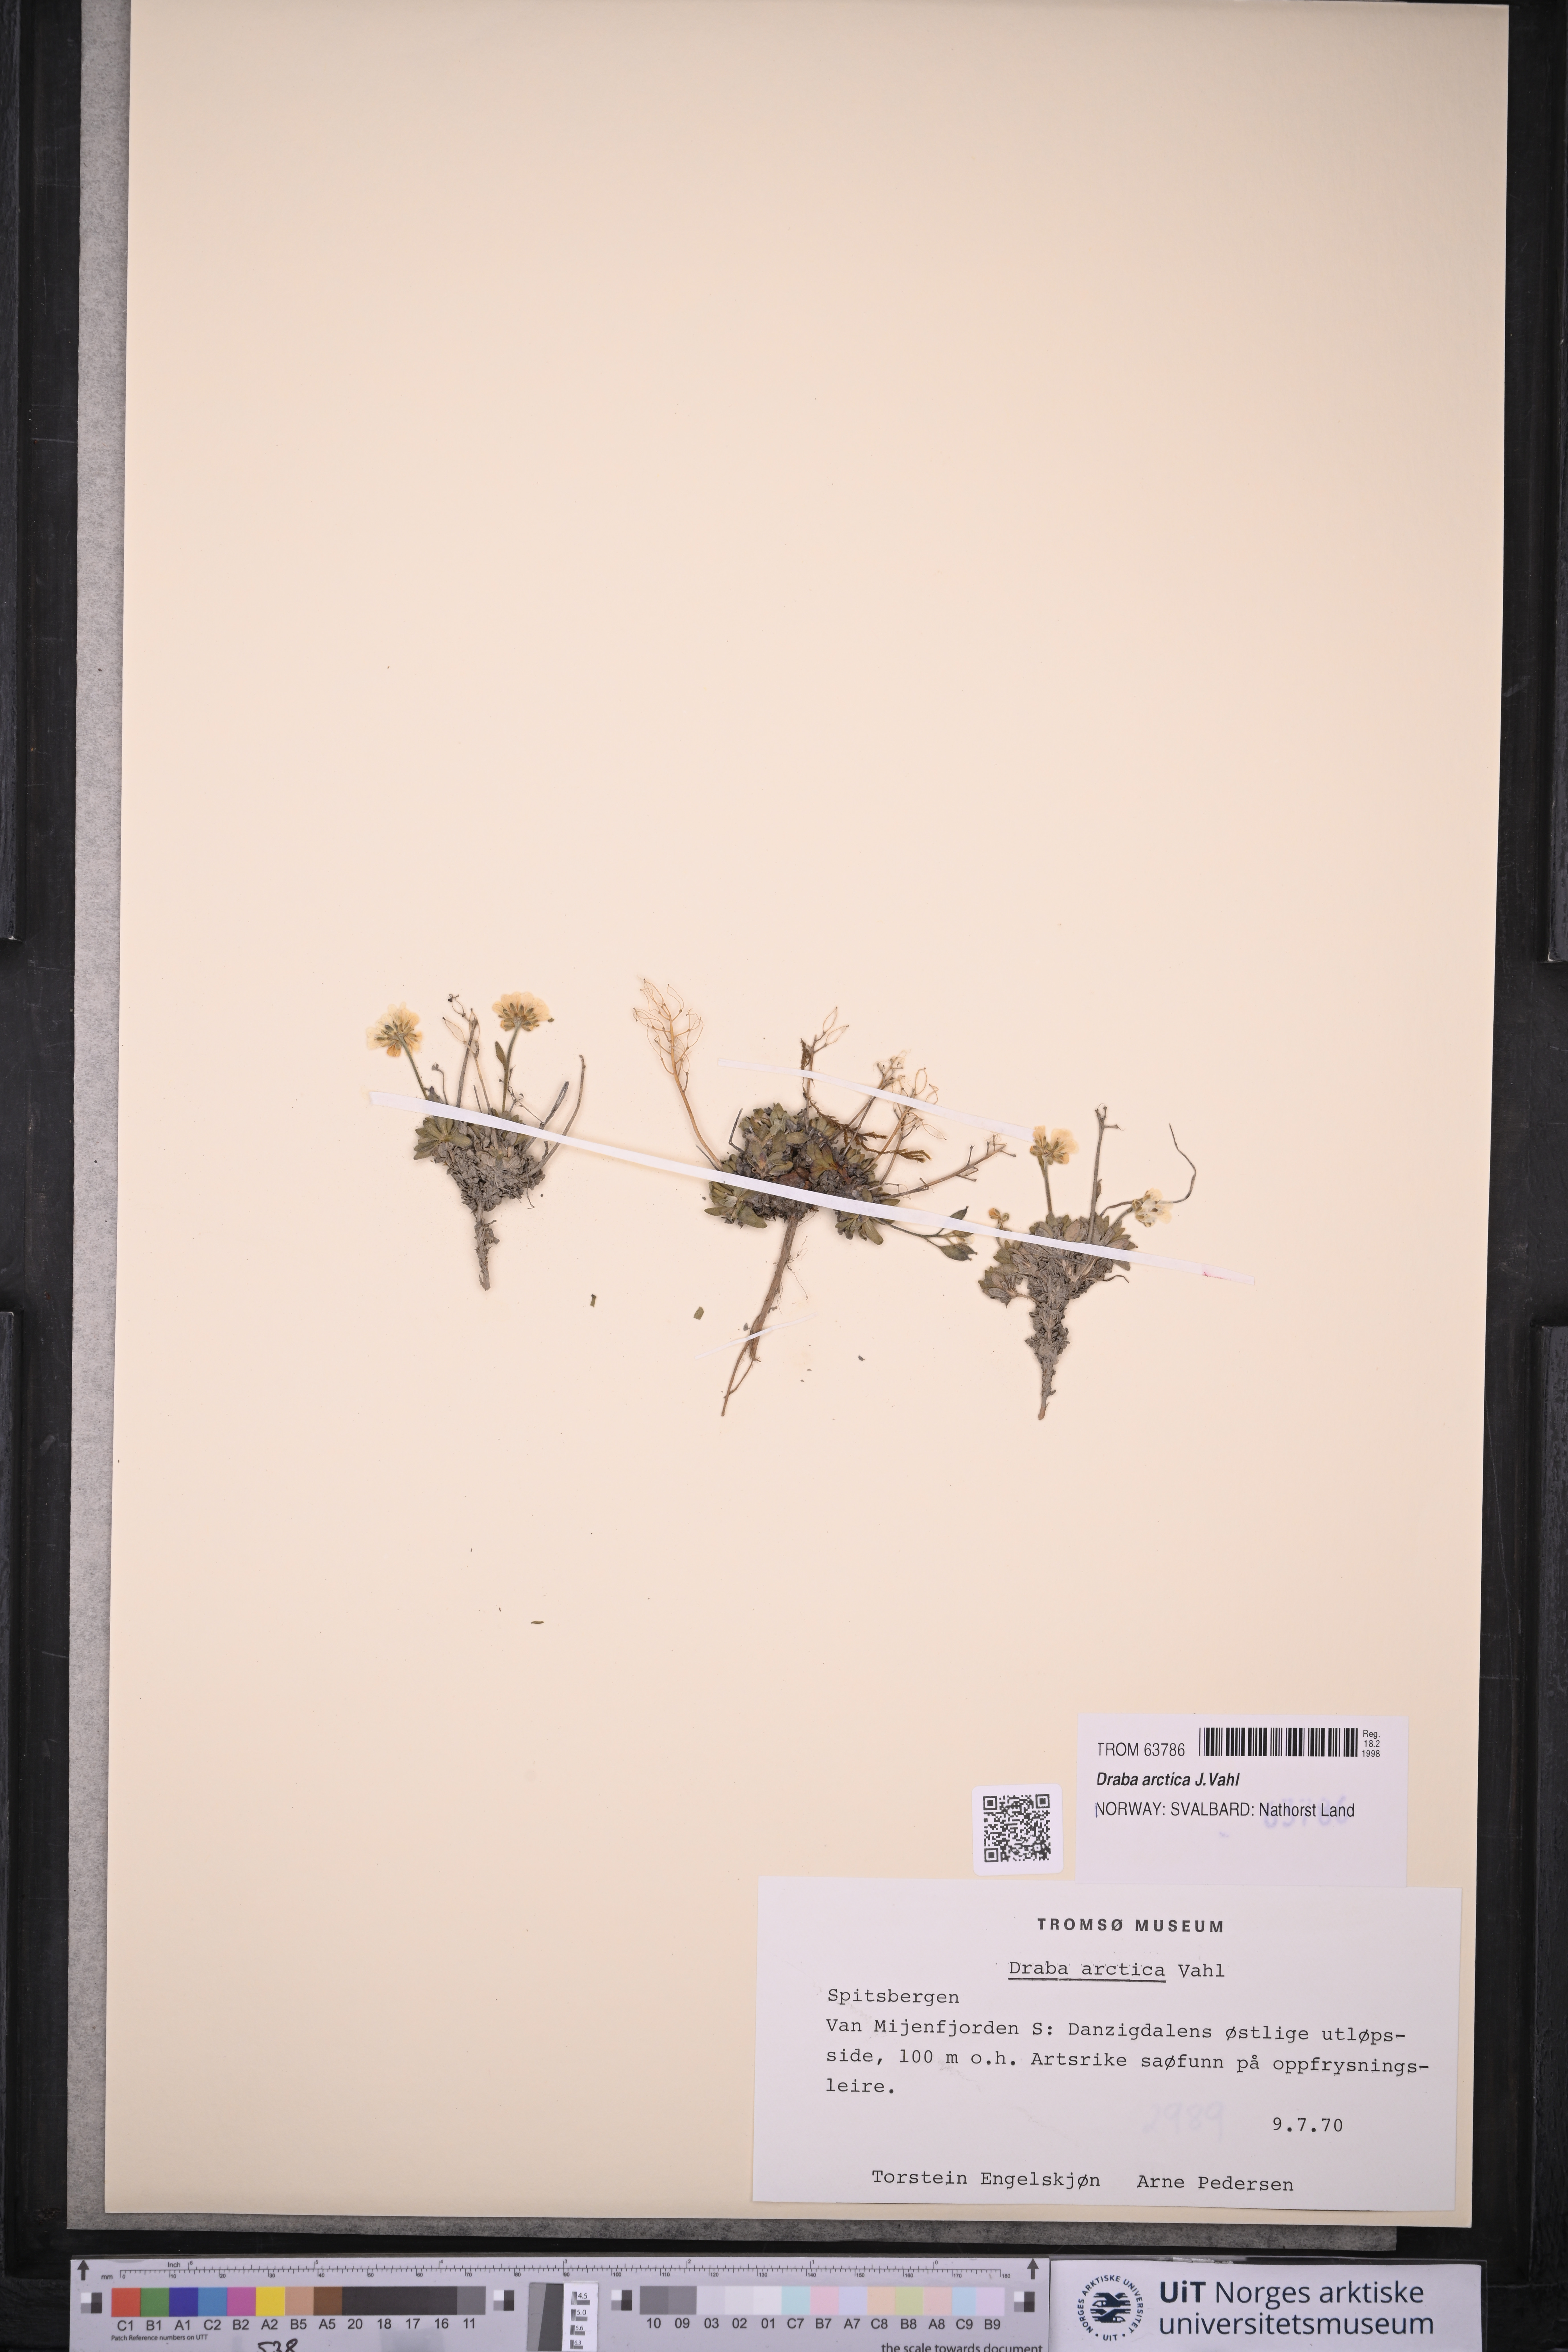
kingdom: Plantae
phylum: Tracheophyta
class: Magnoliopsida
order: Brassicales
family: Brassicaceae
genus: Draba
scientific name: Draba arctica
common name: Arctic draba
